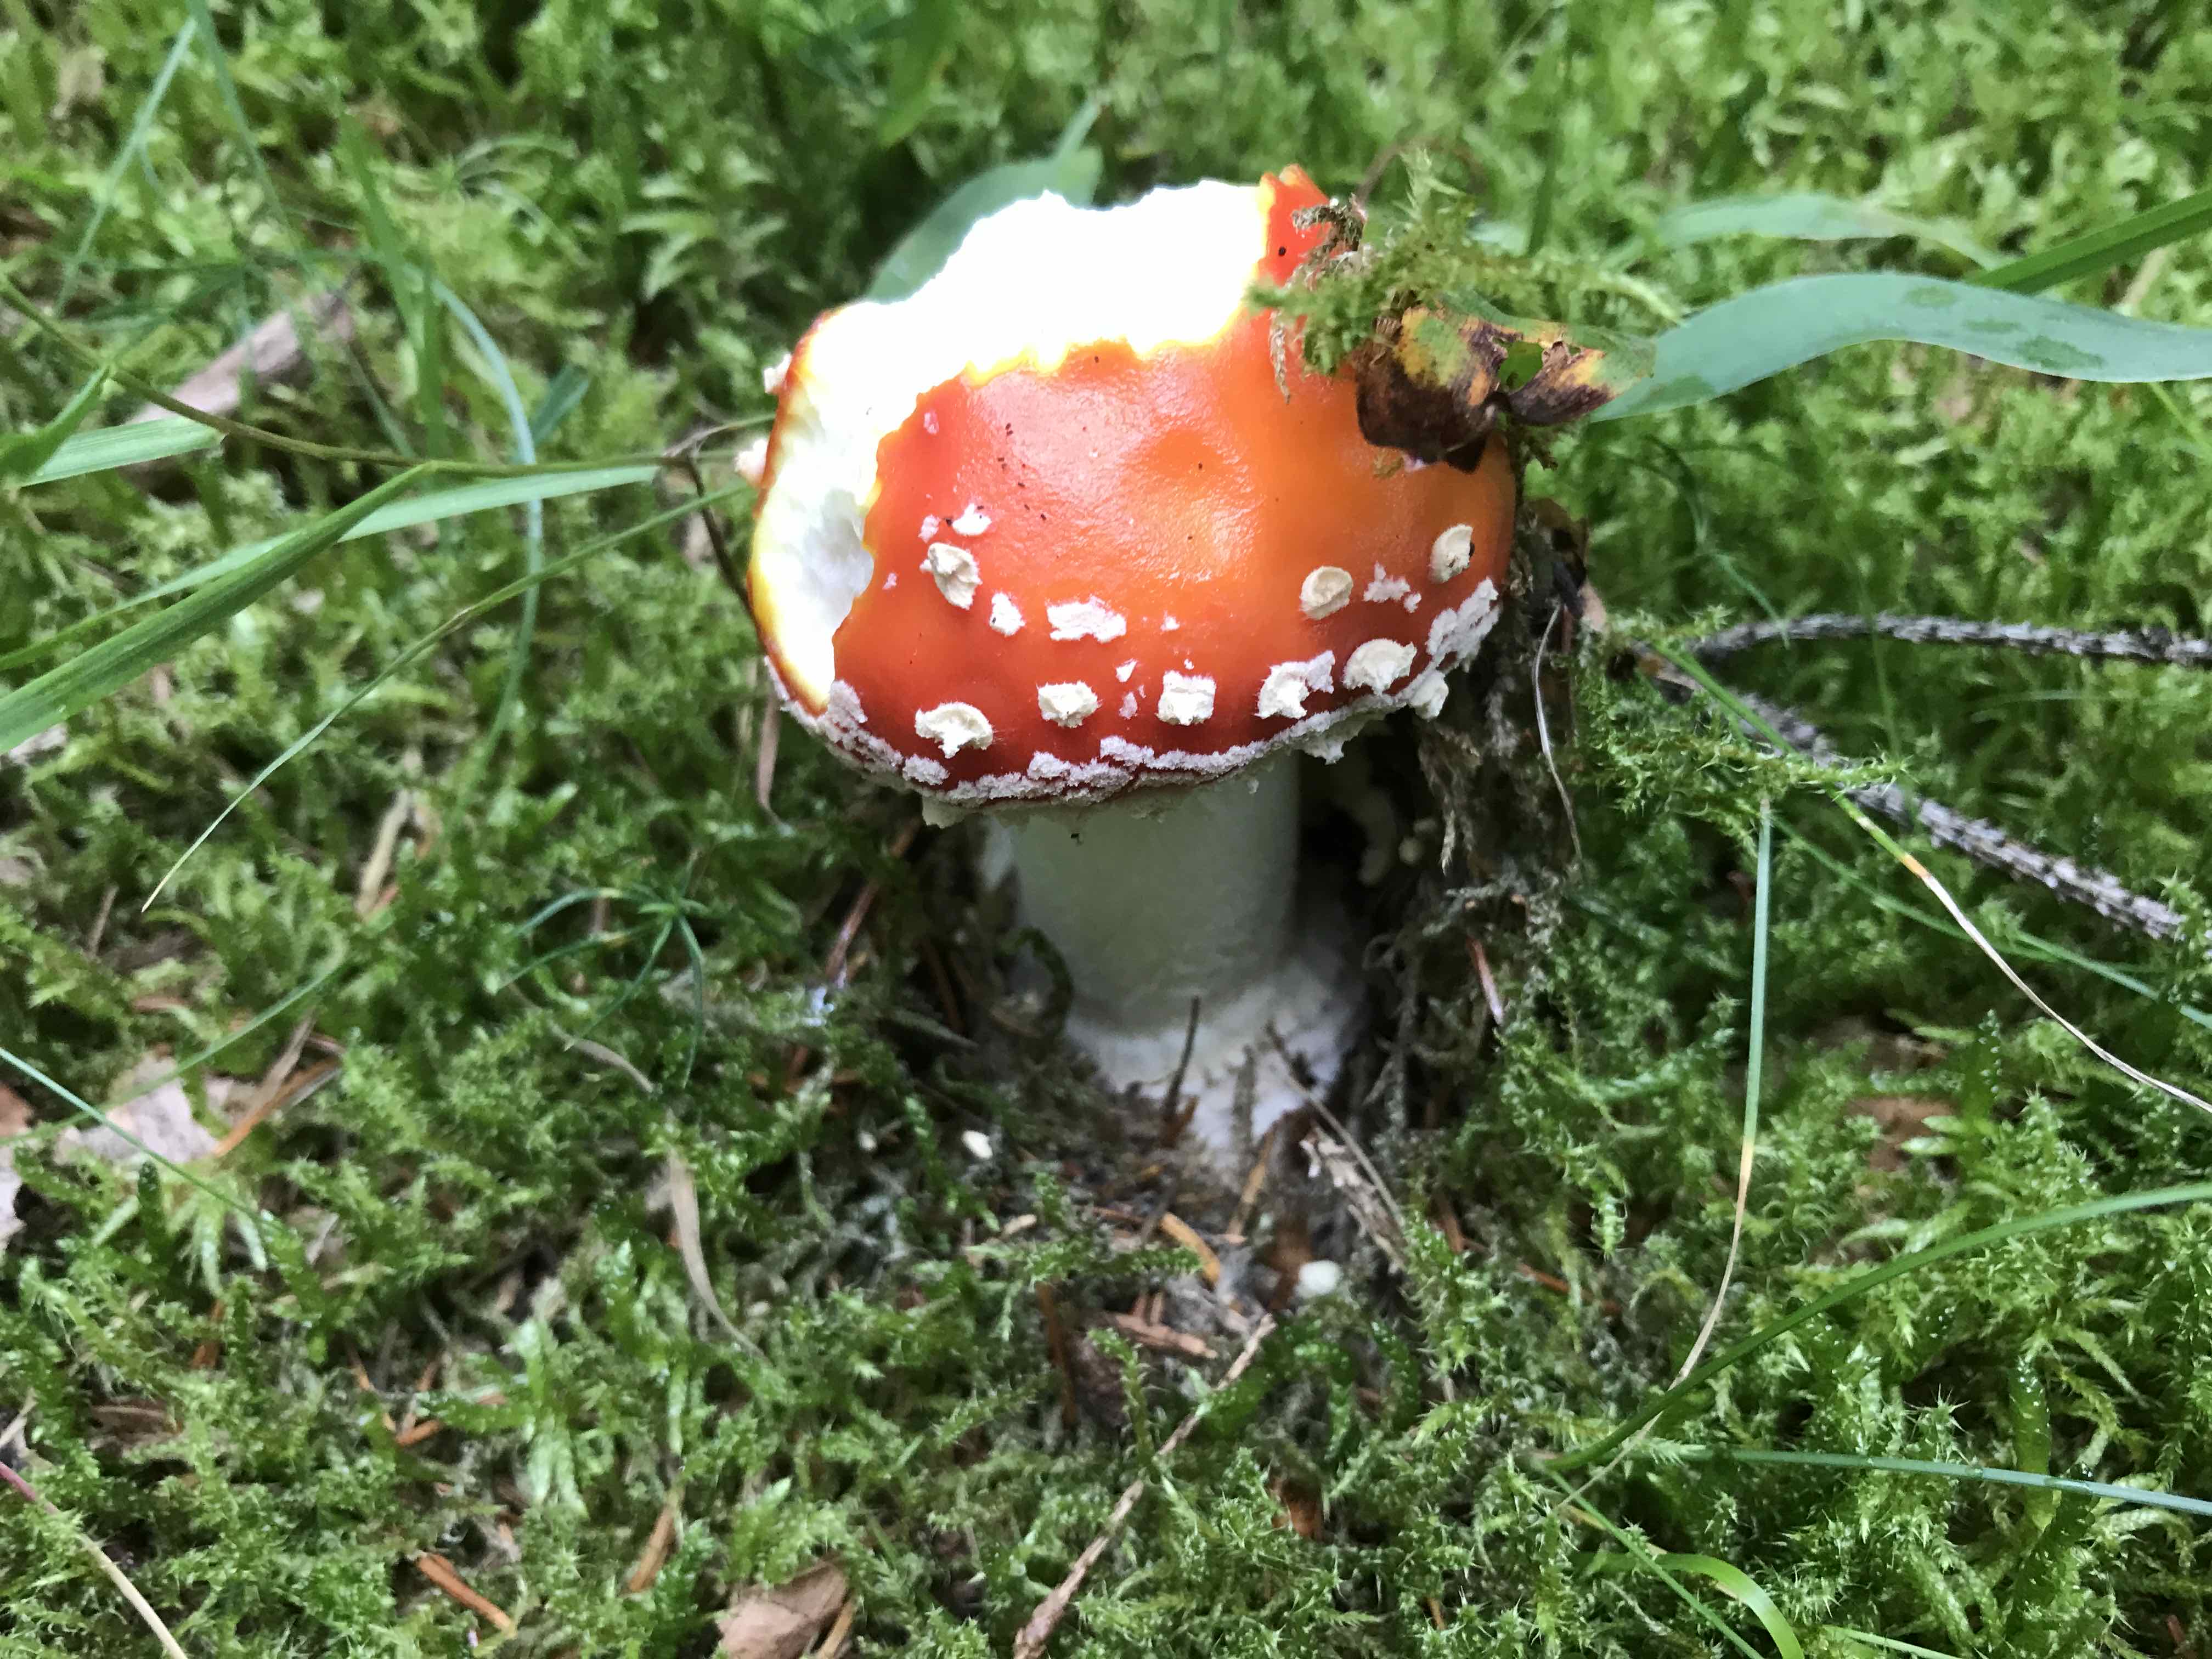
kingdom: Fungi
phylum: Basidiomycota
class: Agaricomycetes
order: Agaricales
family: Amanitaceae
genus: Amanita
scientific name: Amanita muscaria
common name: rød fluesvamp
